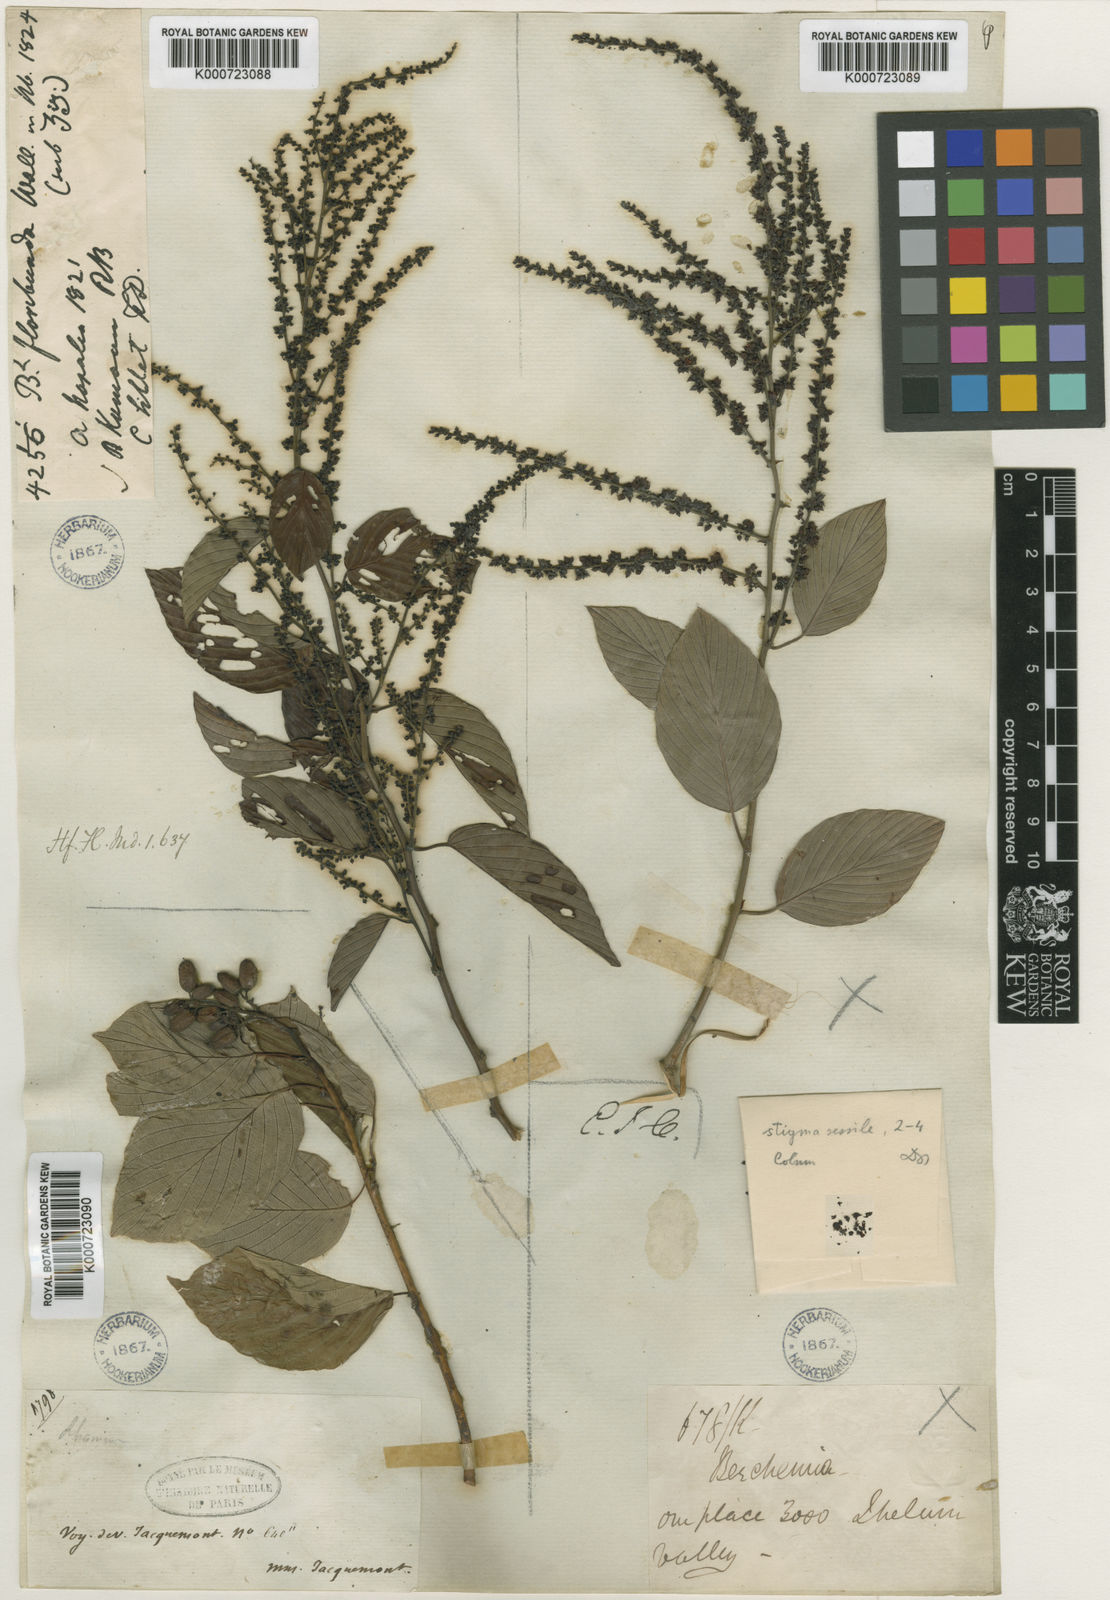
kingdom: Plantae
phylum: Tracheophyta
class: Magnoliopsida
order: Rosales
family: Rhamnaceae
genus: Berchemia
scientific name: Berchemia floribunda
